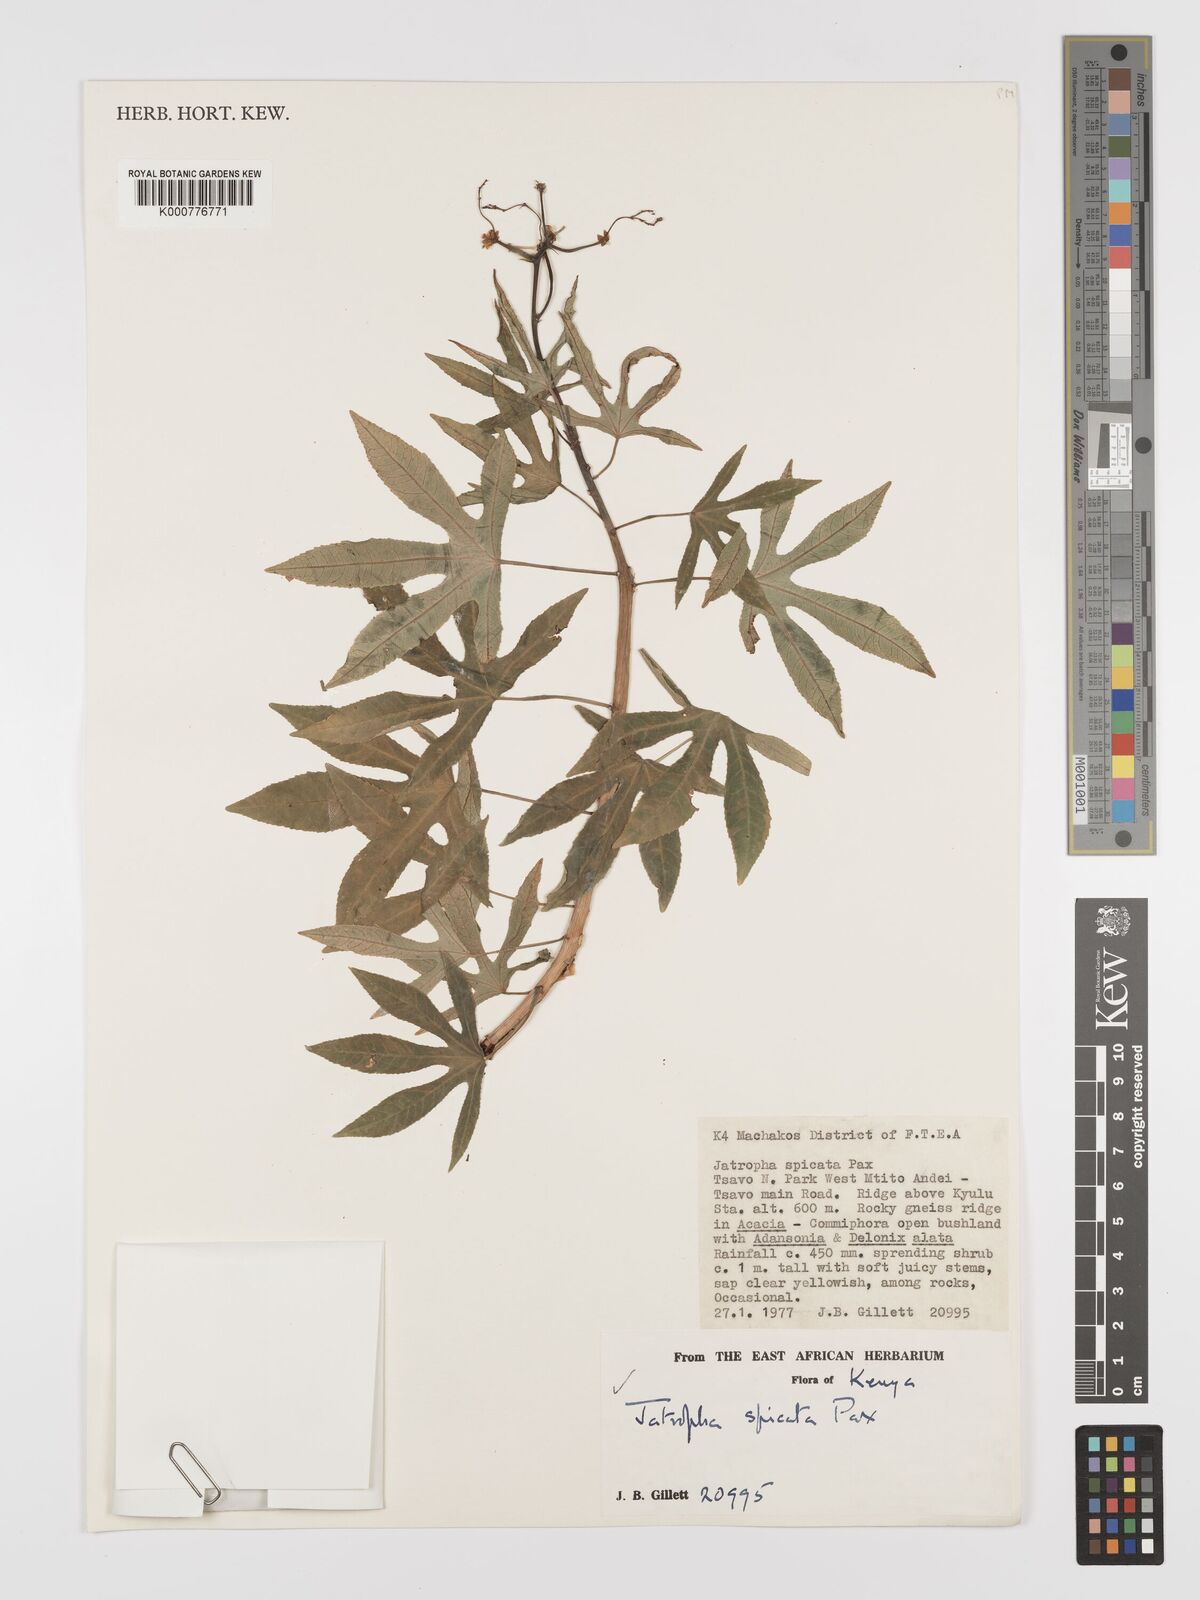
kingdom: Plantae
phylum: Tracheophyta
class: Magnoliopsida
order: Malpighiales
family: Euphorbiaceae
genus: Jatropha
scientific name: Jatropha spicata
